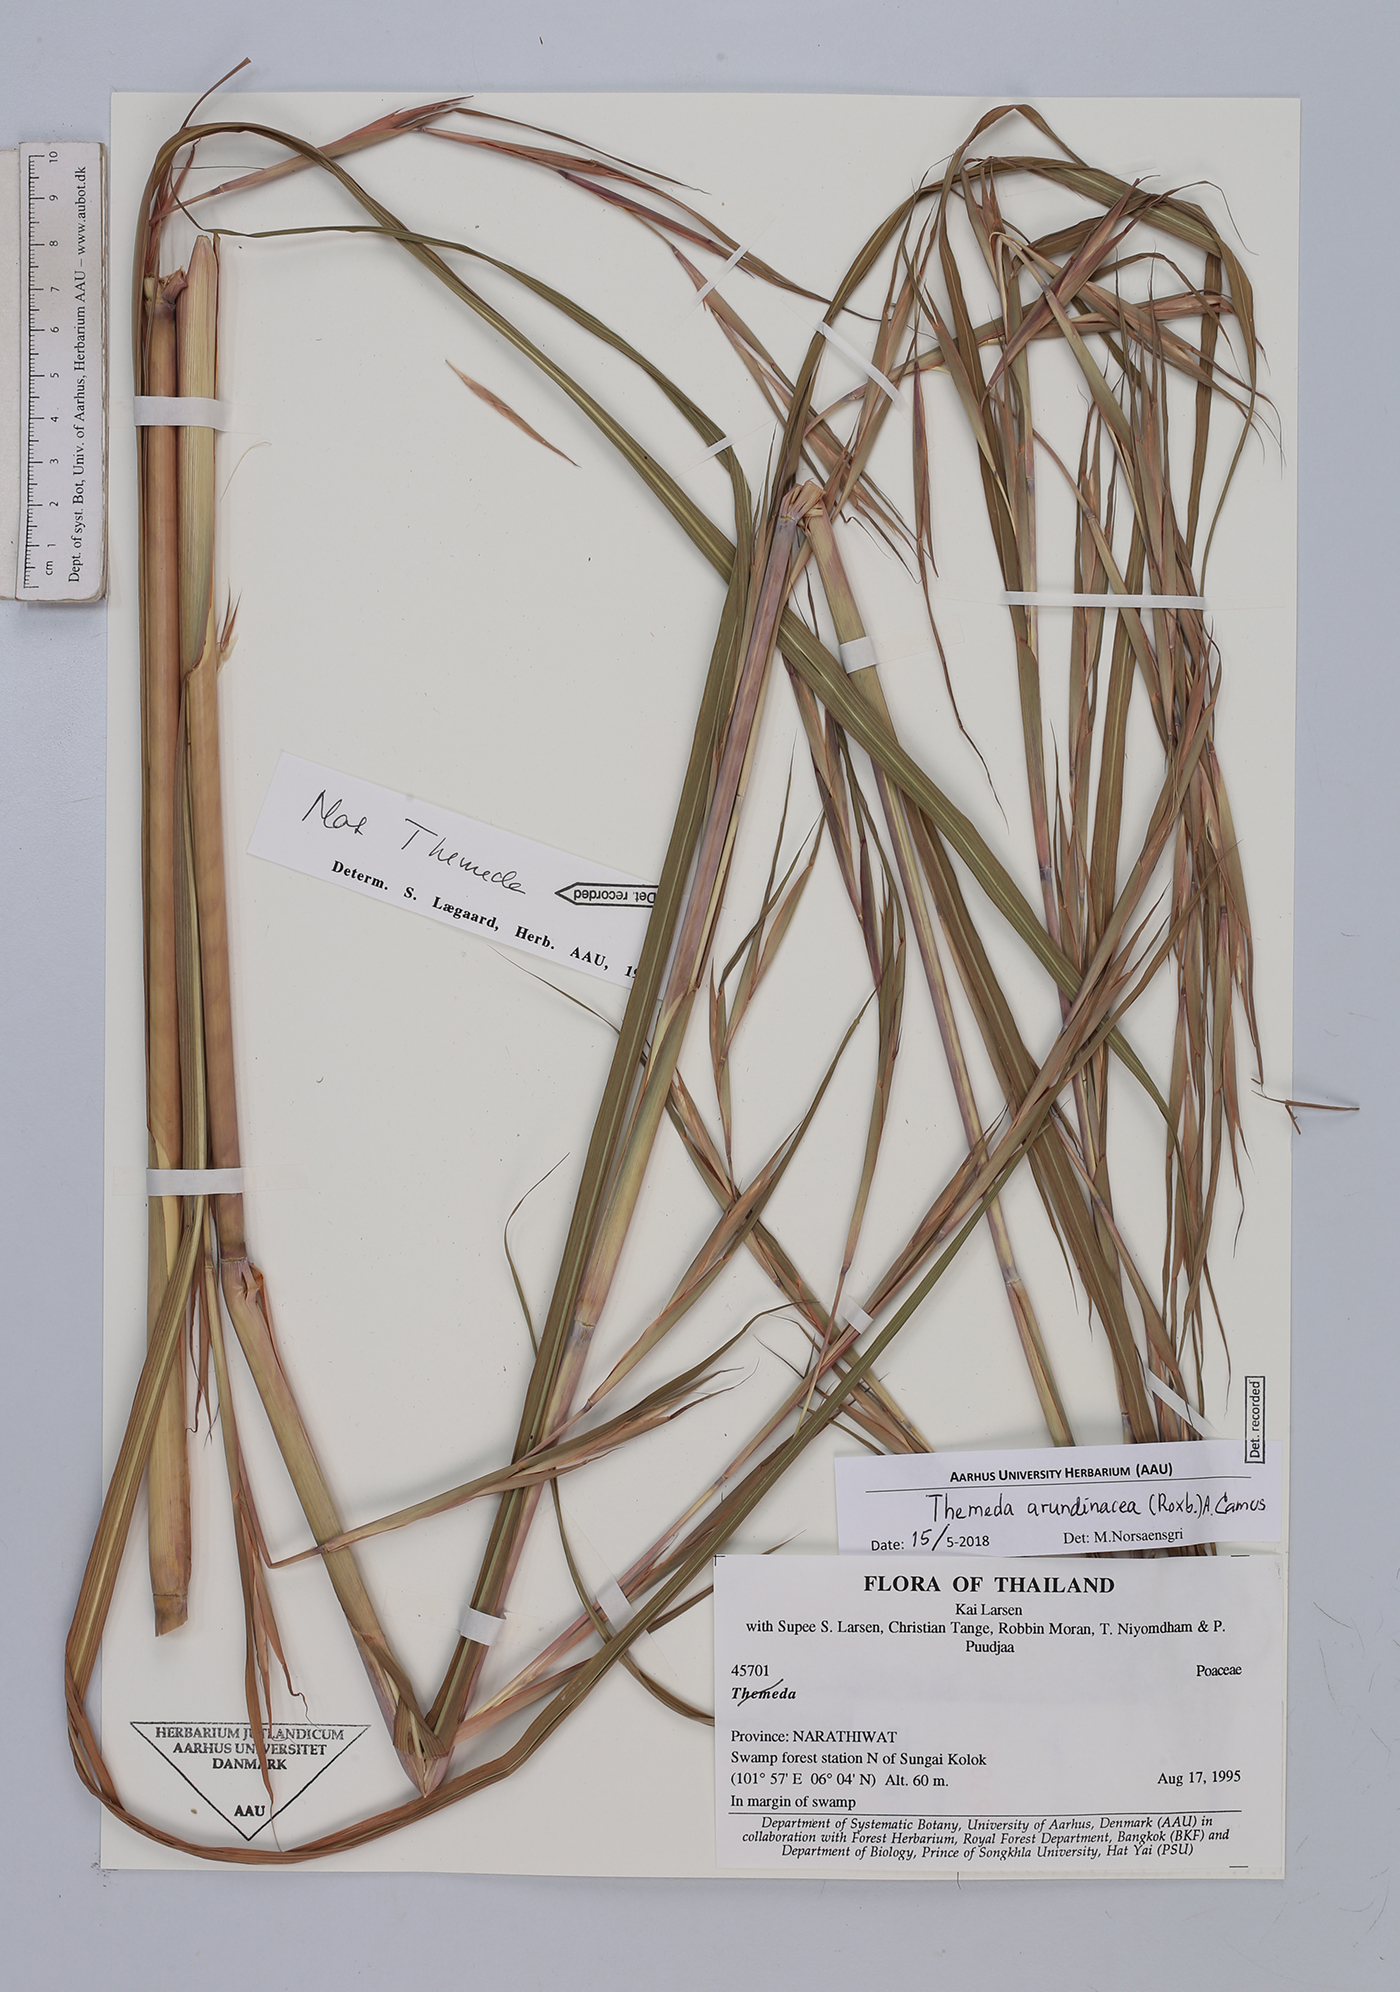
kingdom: Plantae
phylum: Tracheophyta
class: Liliopsida
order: Poales
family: Poaceae
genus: Themeda
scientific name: Themeda arundinacea
